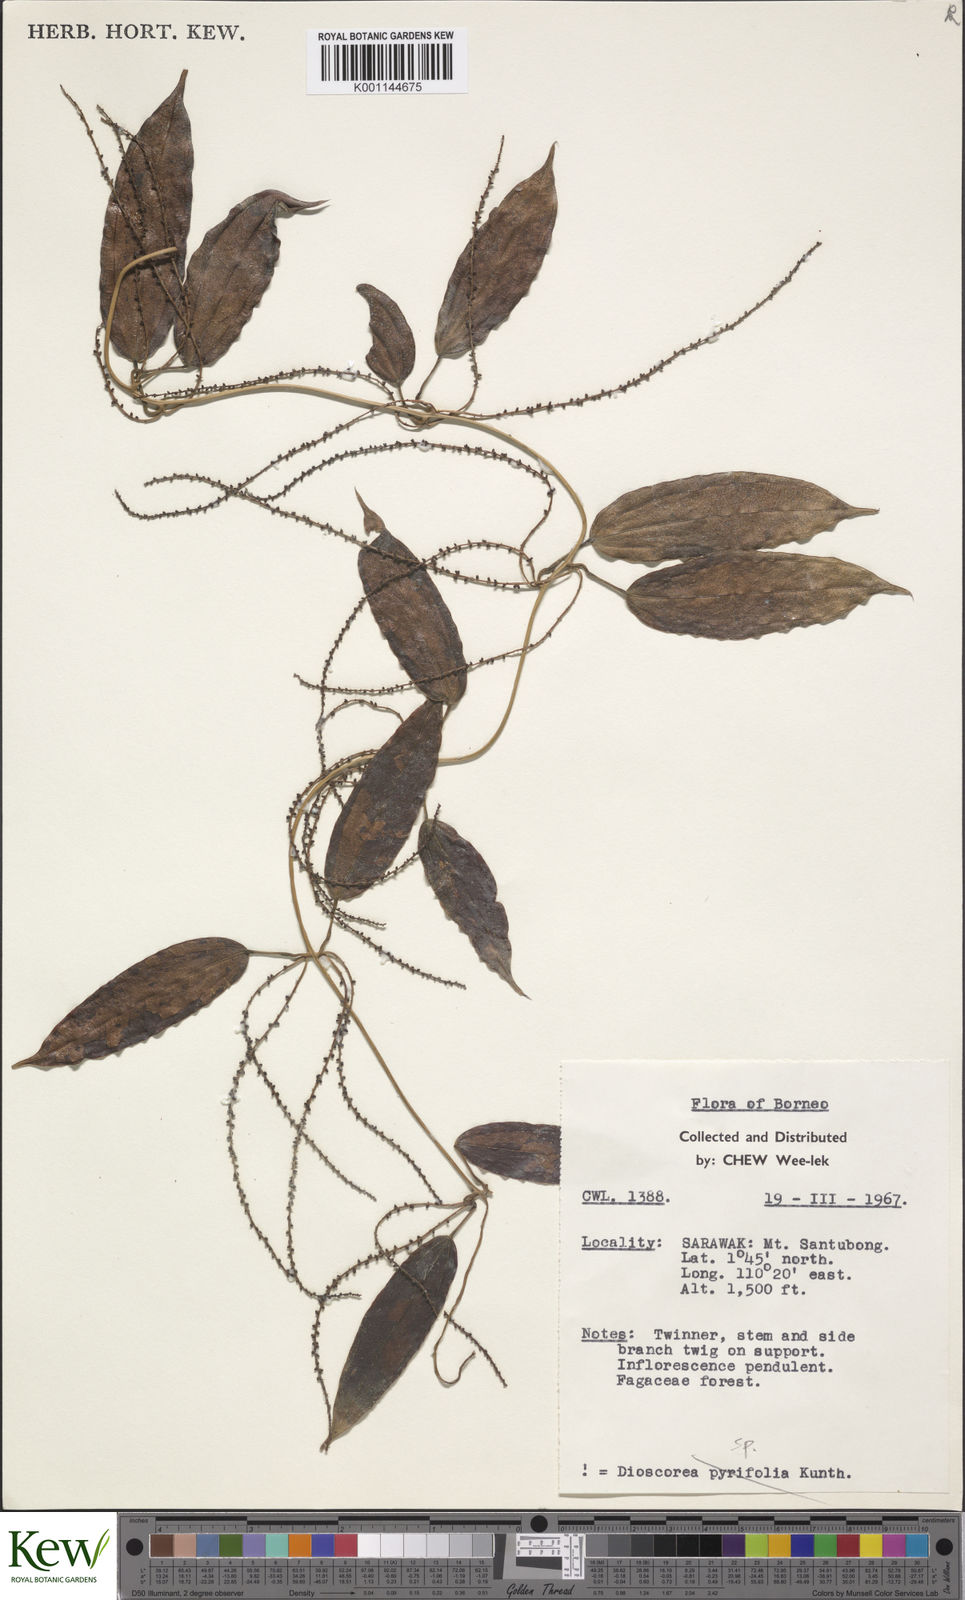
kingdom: Plantae
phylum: Tracheophyta
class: Liliopsida
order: Dioscoreales
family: Dioscoreaceae
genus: Dioscorea
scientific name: Dioscorea
